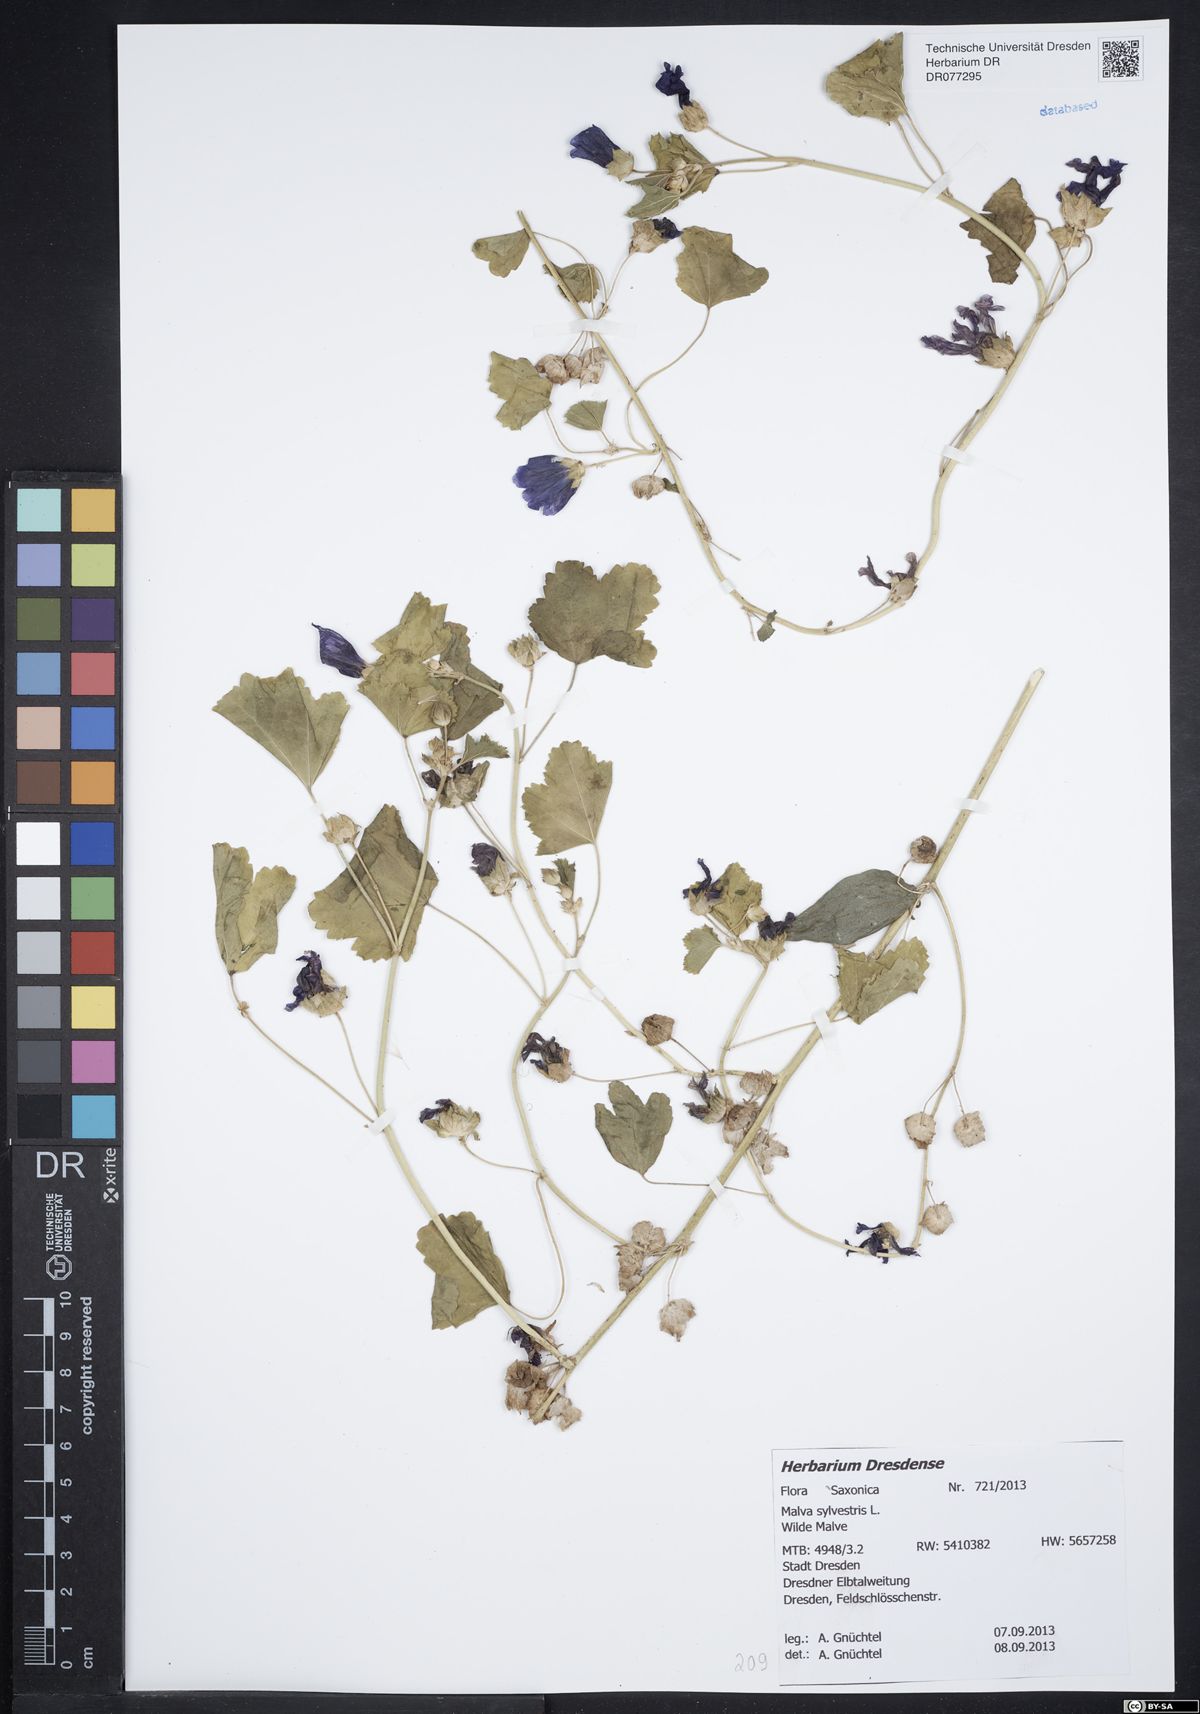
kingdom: Plantae
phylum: Tracheophyta
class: Magnoliopsida
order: Malvales
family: Malvaceae
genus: Malva
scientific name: Malva sylvestris
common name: Common mallow
